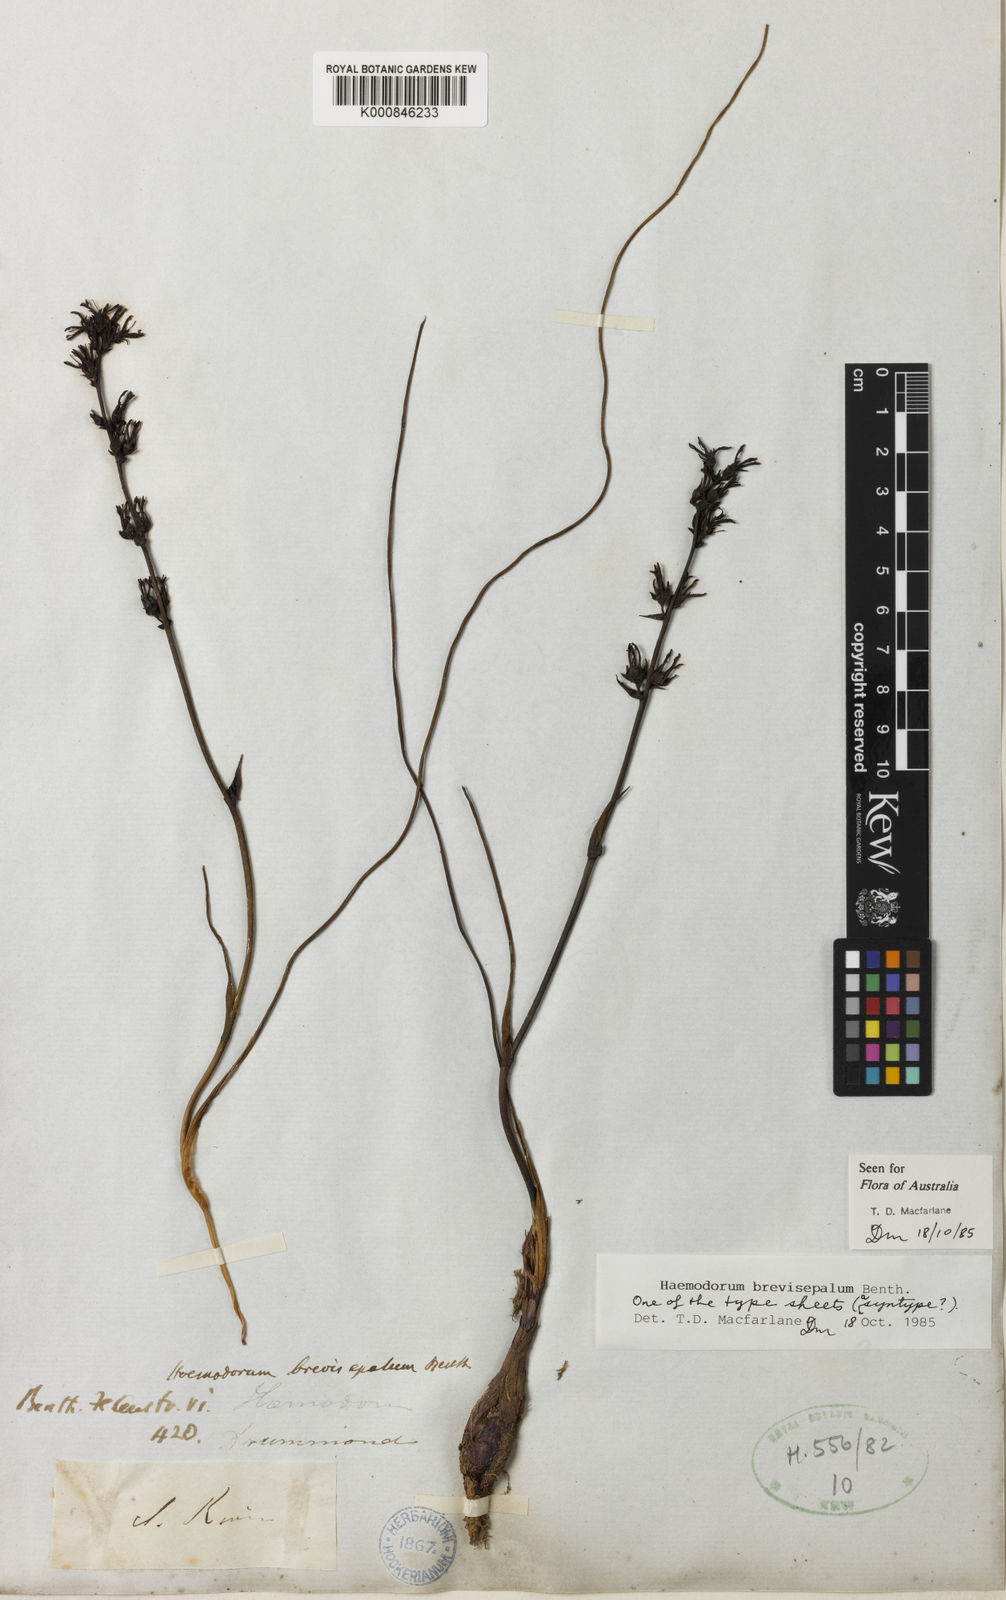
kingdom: Plantae
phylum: Tracheophyta
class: Liliopsida
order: Commelinales
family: Haemodoraceae
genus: Haemodorum
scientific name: Haemodorum brevisepalum
